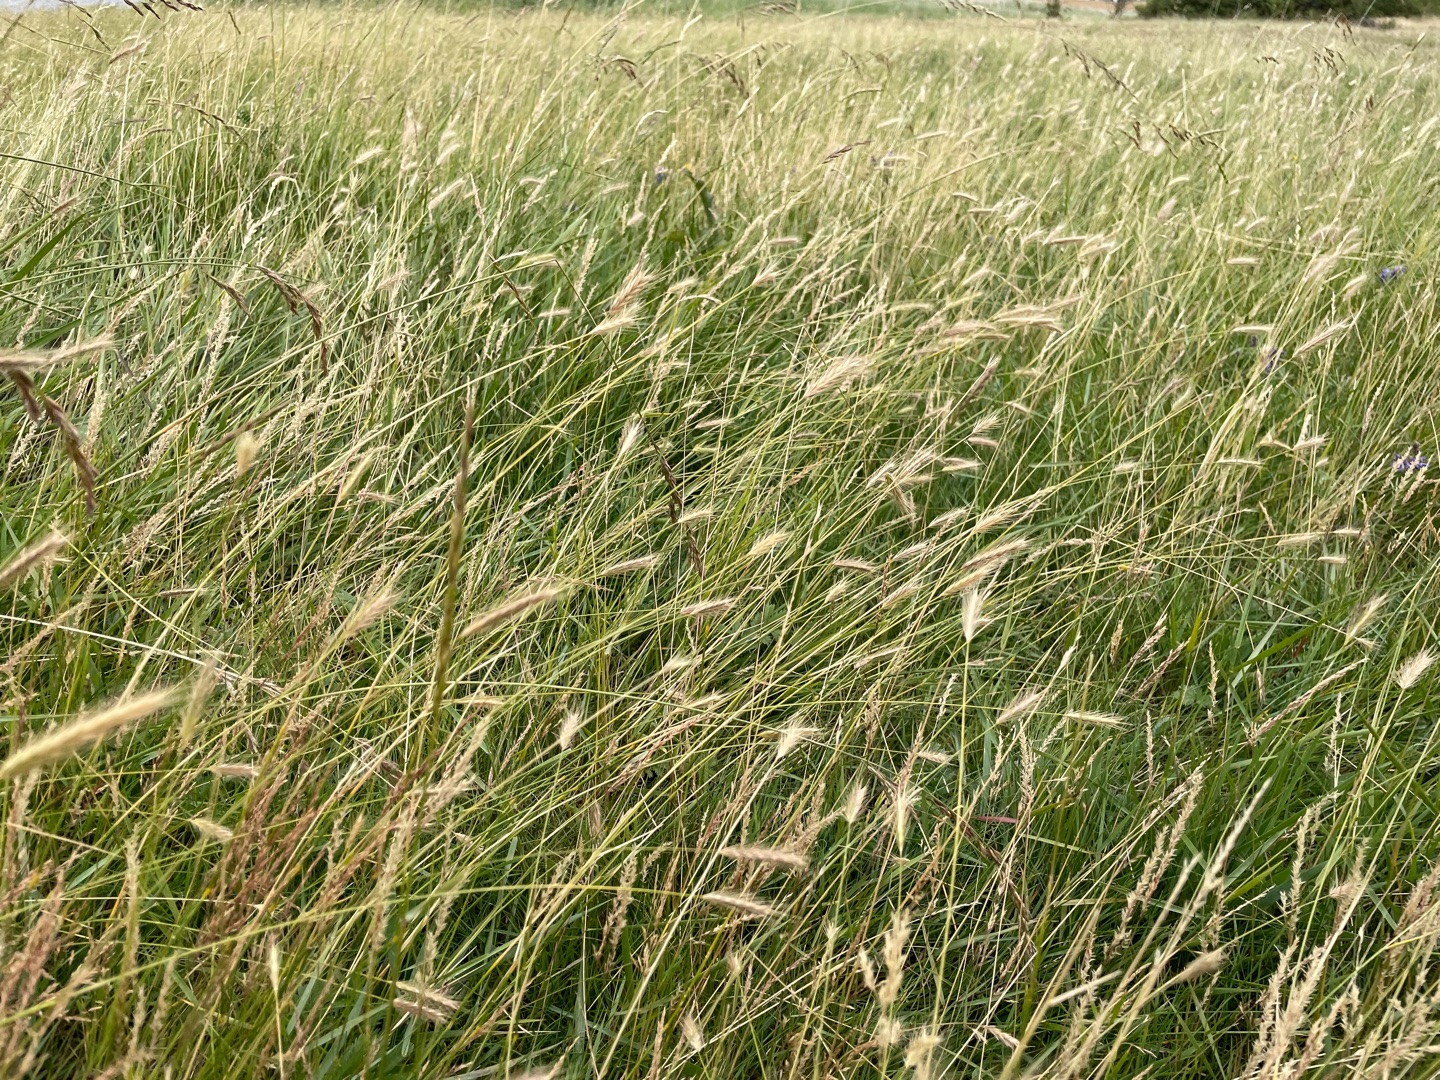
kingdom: Plantae
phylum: Tracheophyta
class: Liliopsida
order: Poales
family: Poaceae
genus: Hordeum
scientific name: Hordeum secalinum
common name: Eng-byg
